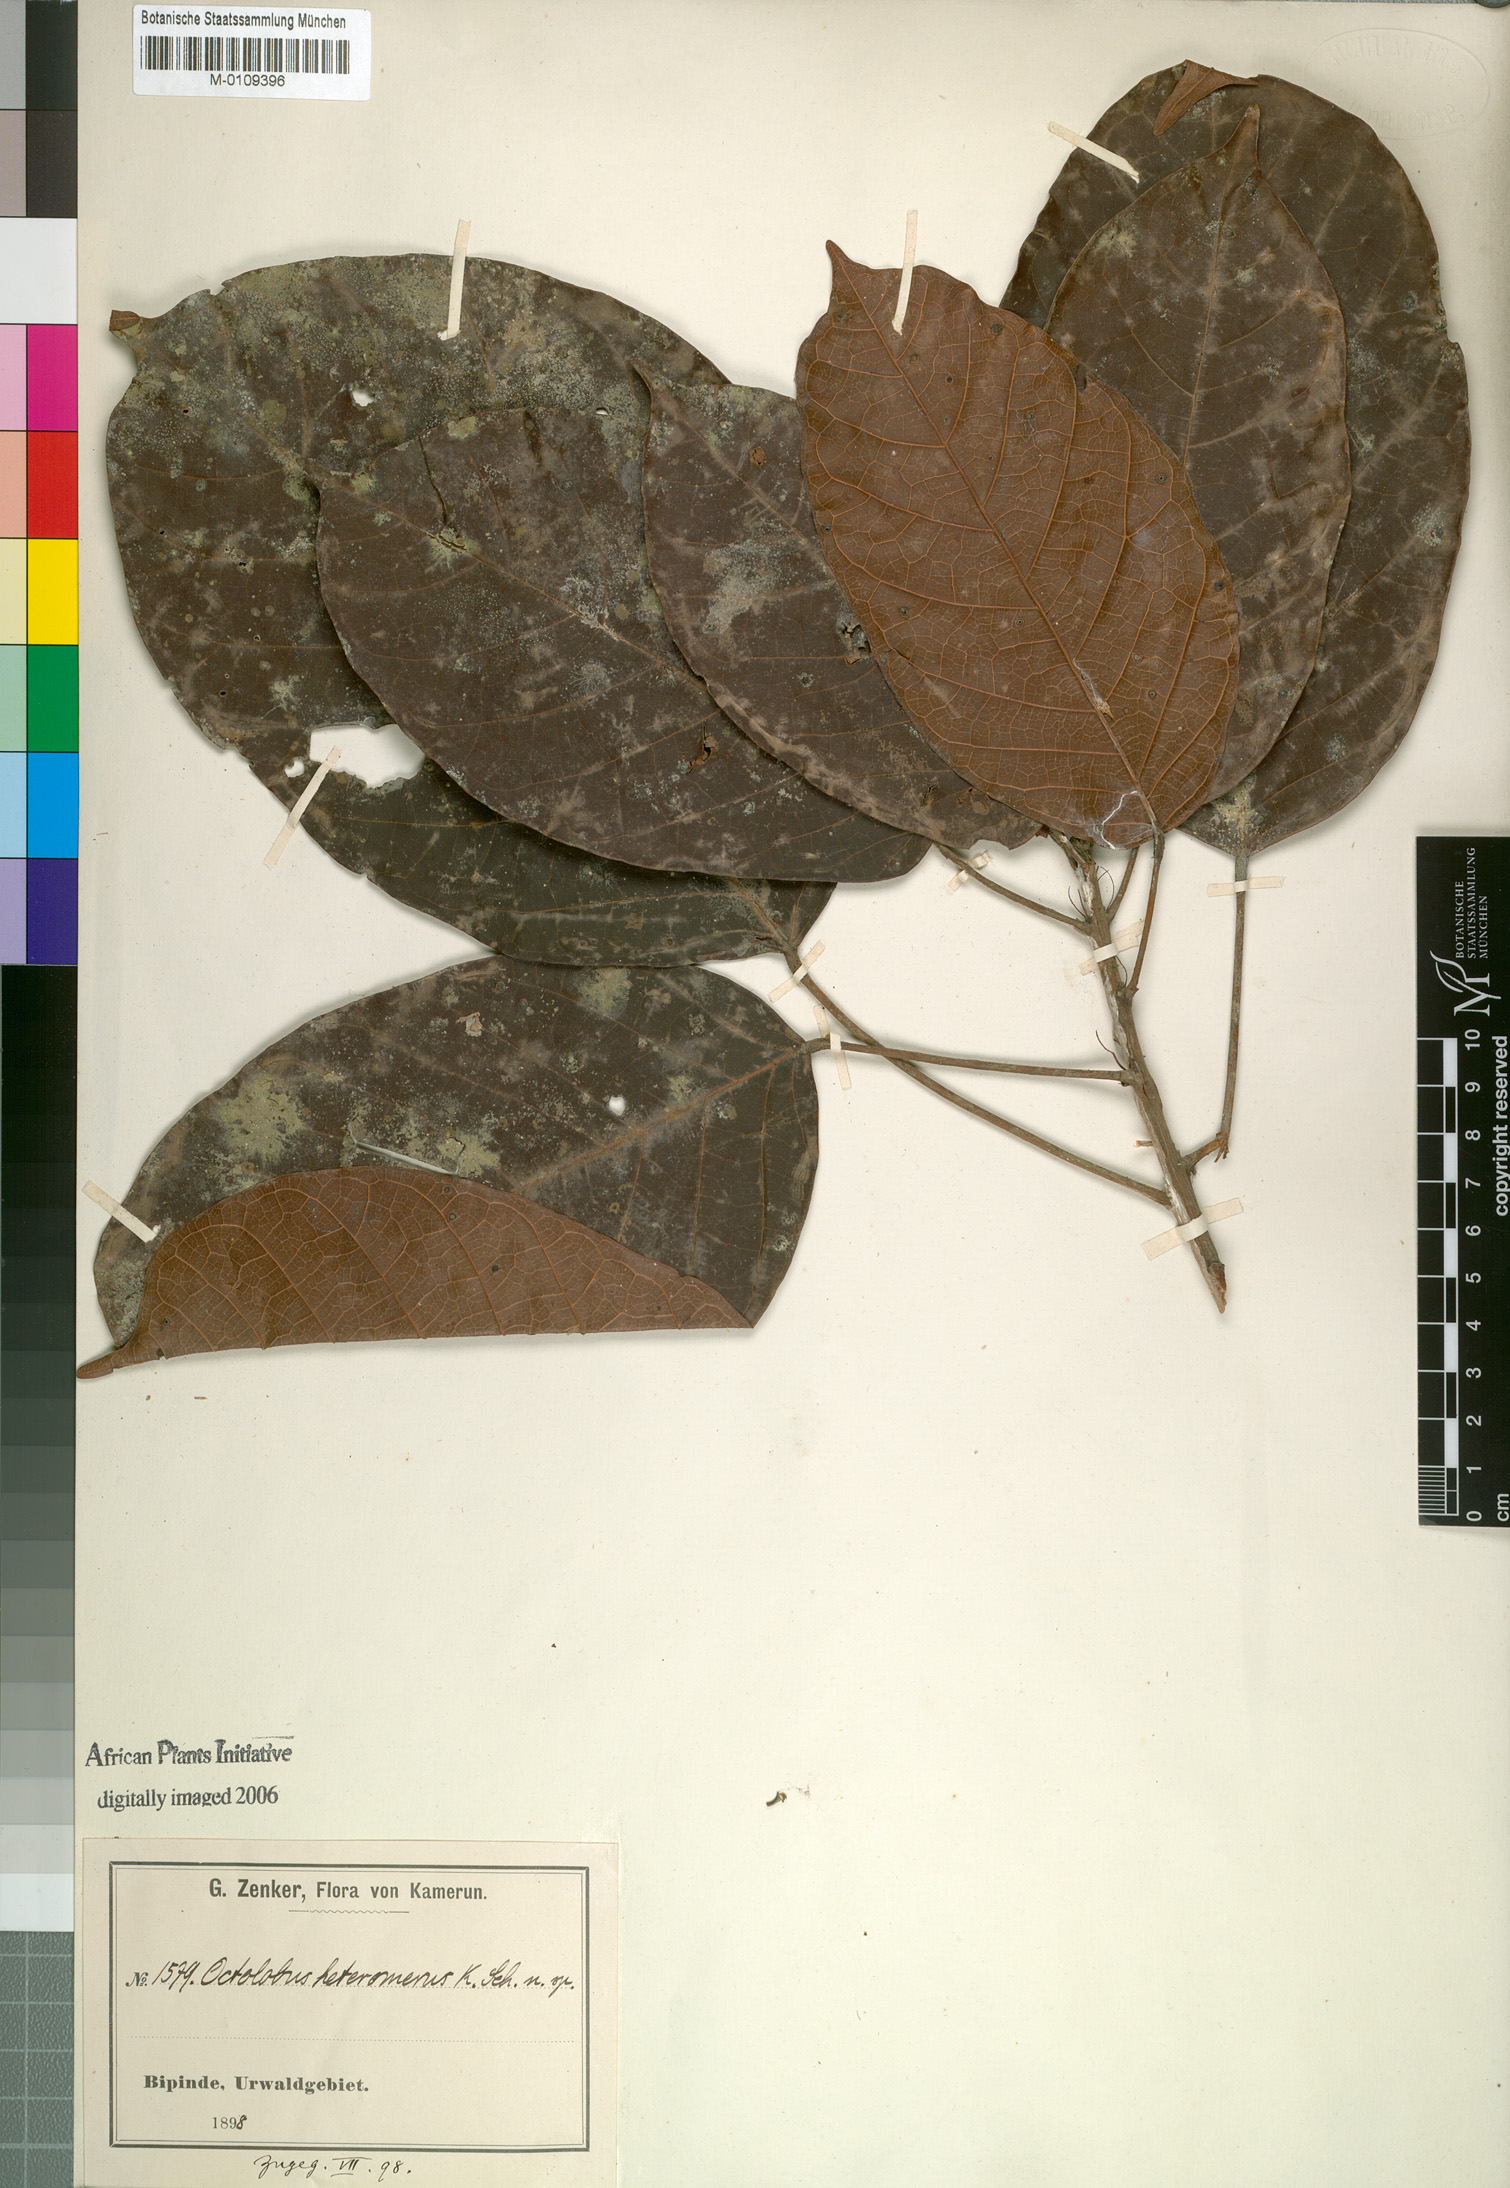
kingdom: Plantae
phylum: Tracheophyta
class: Magnoliopsida
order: Malvales
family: Malvaceae
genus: Octolobus
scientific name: Octolobus heteromerus
